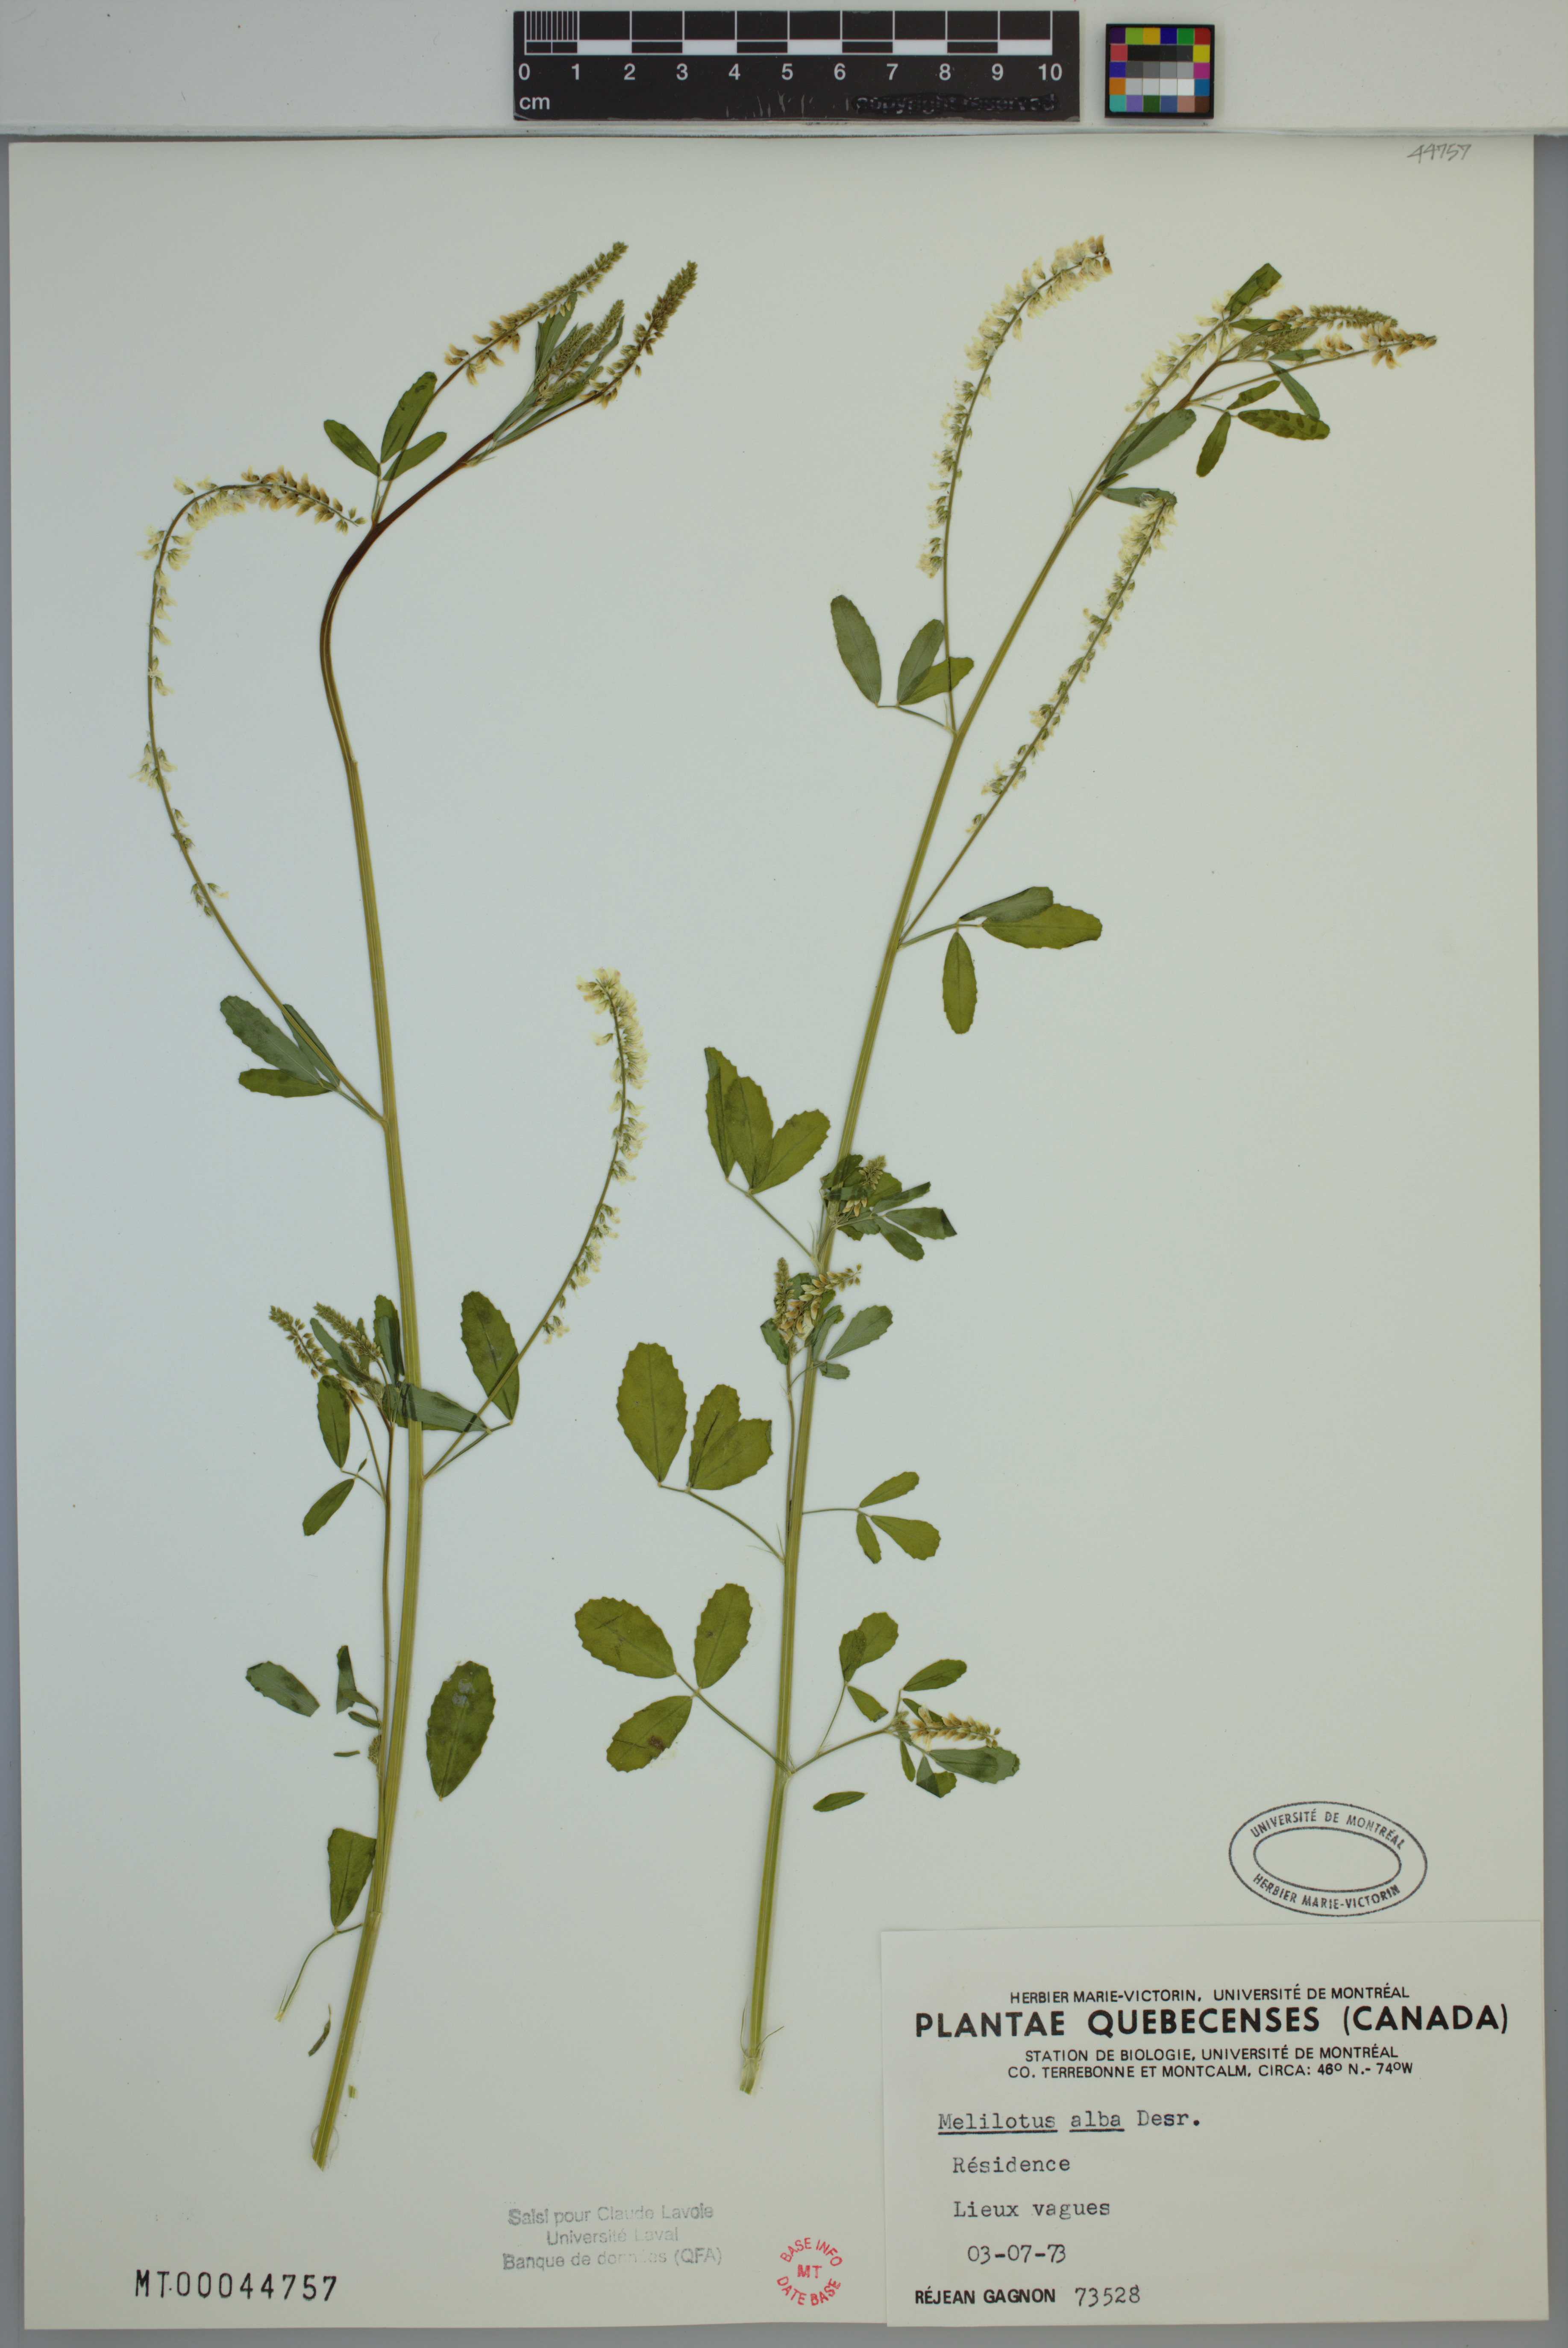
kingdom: Plantae
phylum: Tracheophyta
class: Magnoliopsida
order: Fabales
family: Fabaceae
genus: Melilotus
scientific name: Melilotus albus
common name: White melilot
